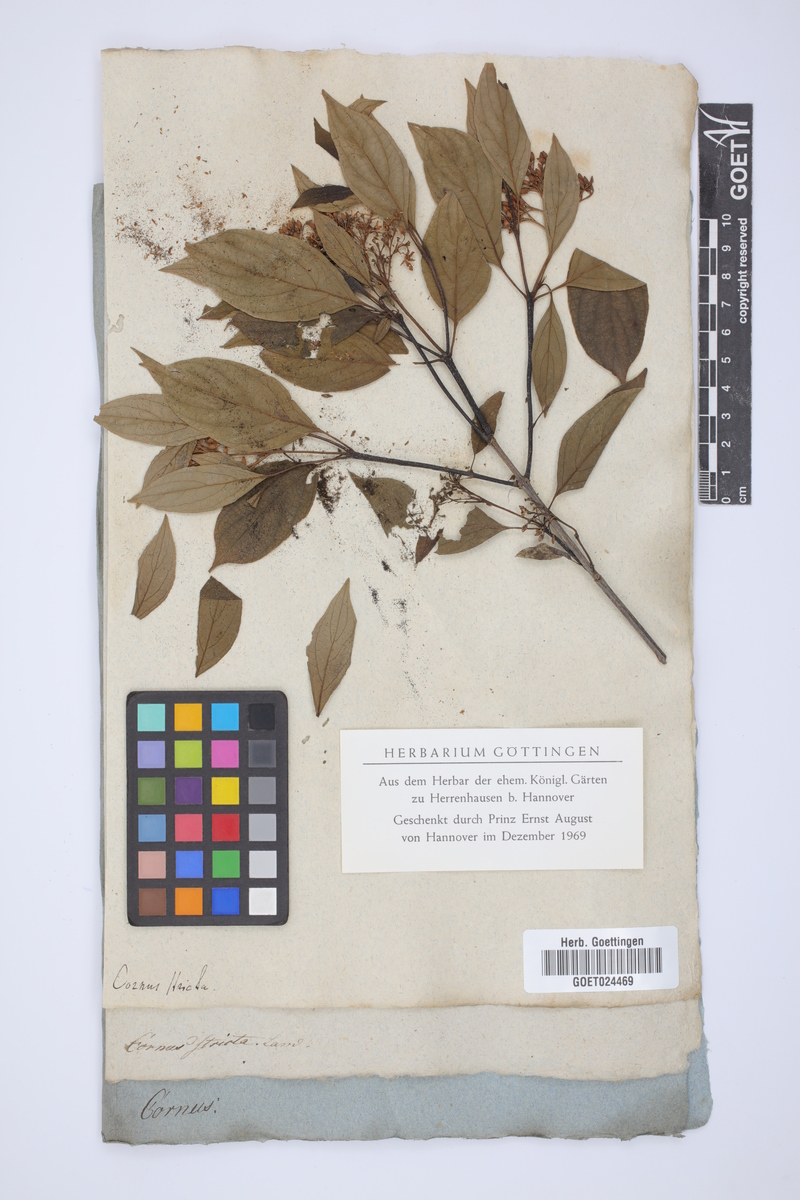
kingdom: Plantae
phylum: Tracheophyta
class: Magnoliopsida
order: Cornales
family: Cornaceae
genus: Cornus
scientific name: Cornus foemina
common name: Swamp dogwood
